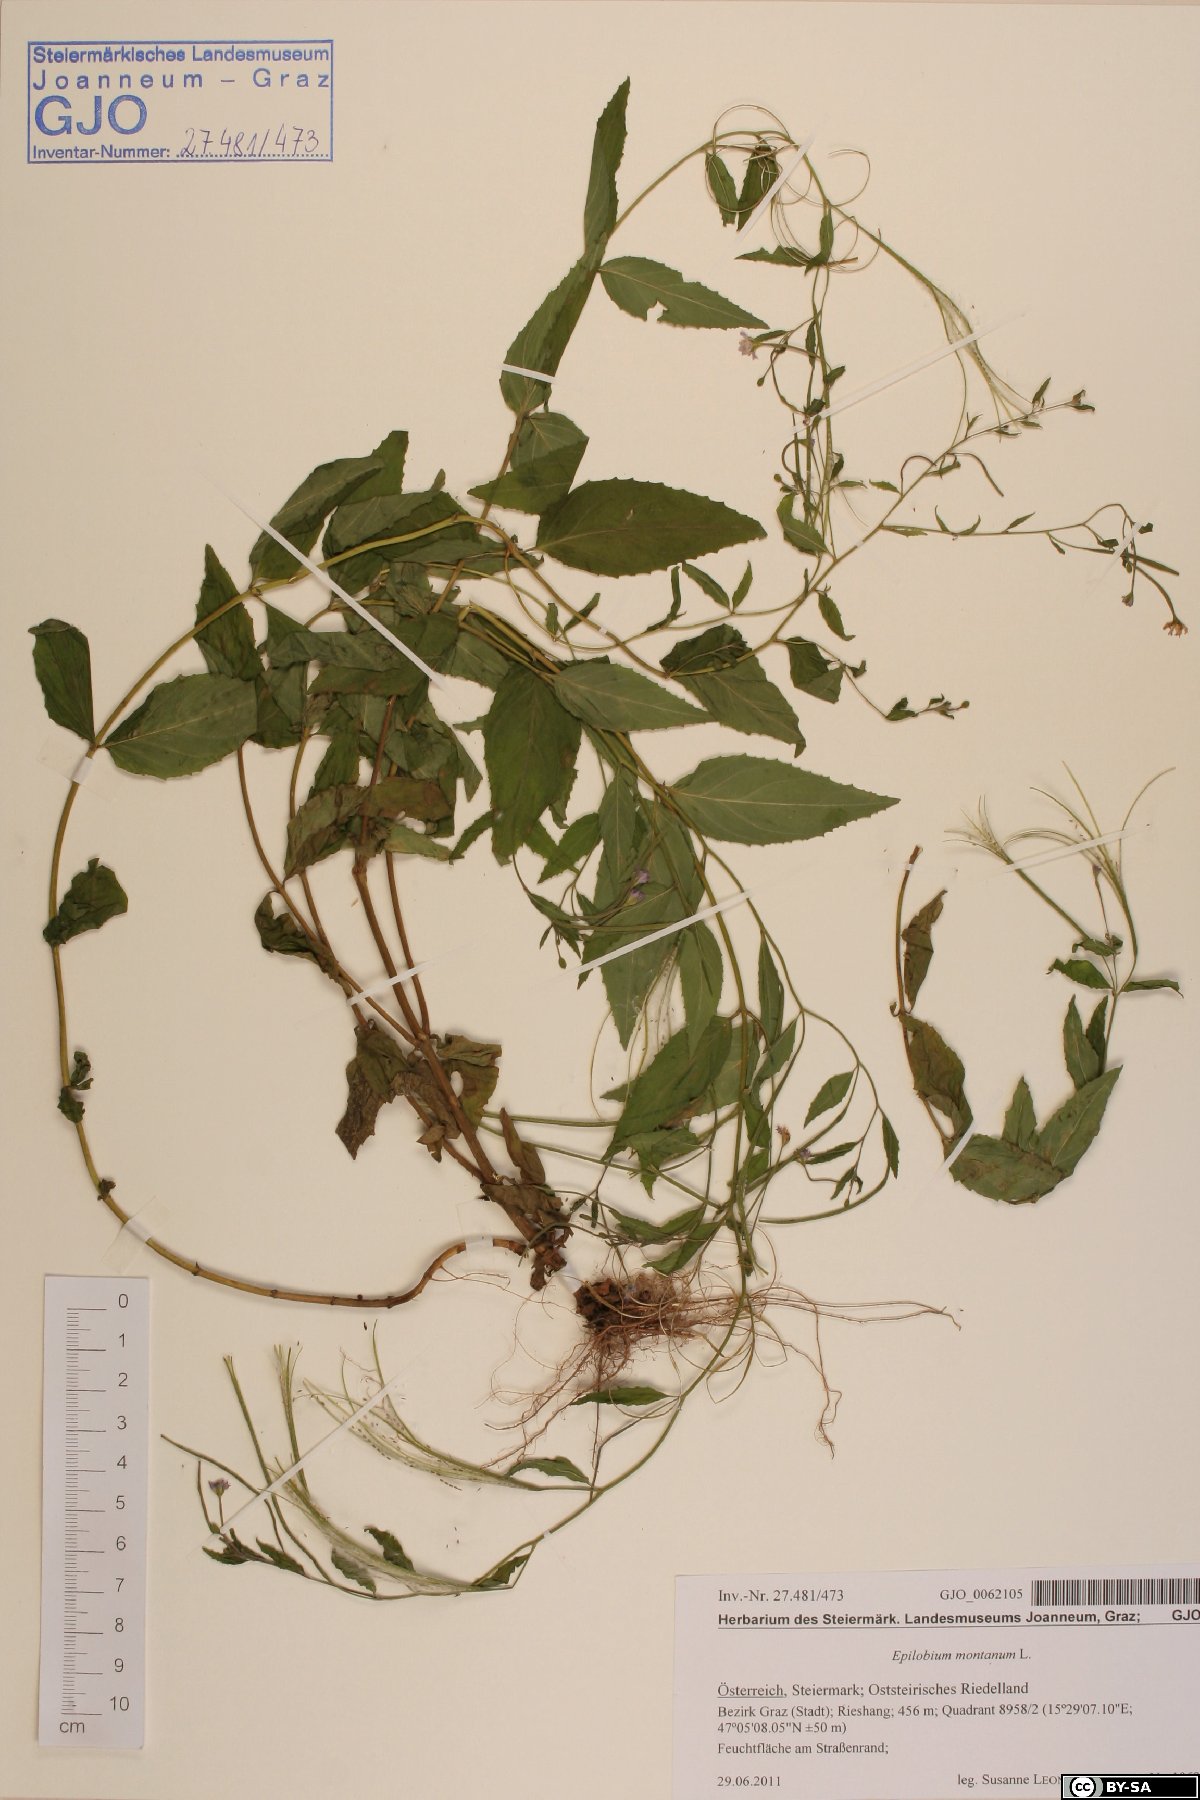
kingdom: Plantae
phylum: Tracheophyta
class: Magnoliopsida
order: Myrtales
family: Onagraceae
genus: Epilobium
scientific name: Epilobium montanum
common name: Broad-leaved willowherb
